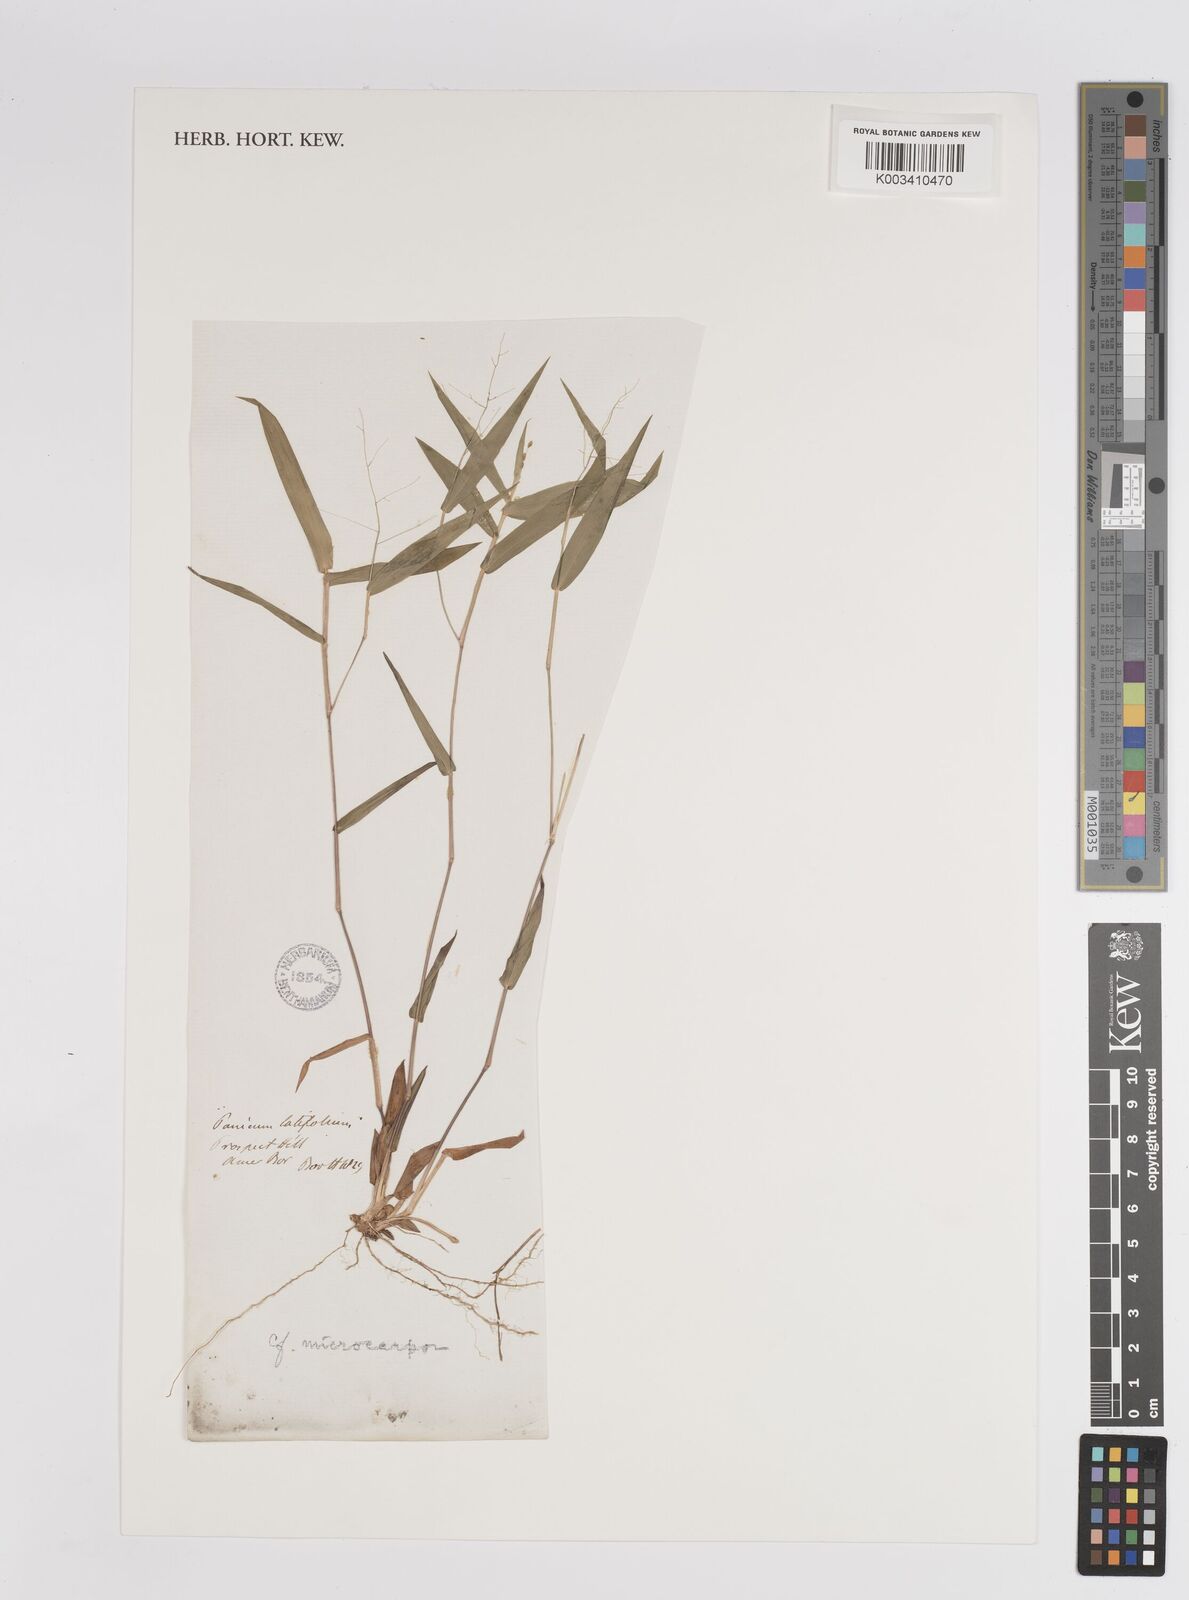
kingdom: Plantae
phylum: Tracheophyta
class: Liliopsida
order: Poales
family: Poaceae
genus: Dichanthelium
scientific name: Dichanthelium polyanthes
